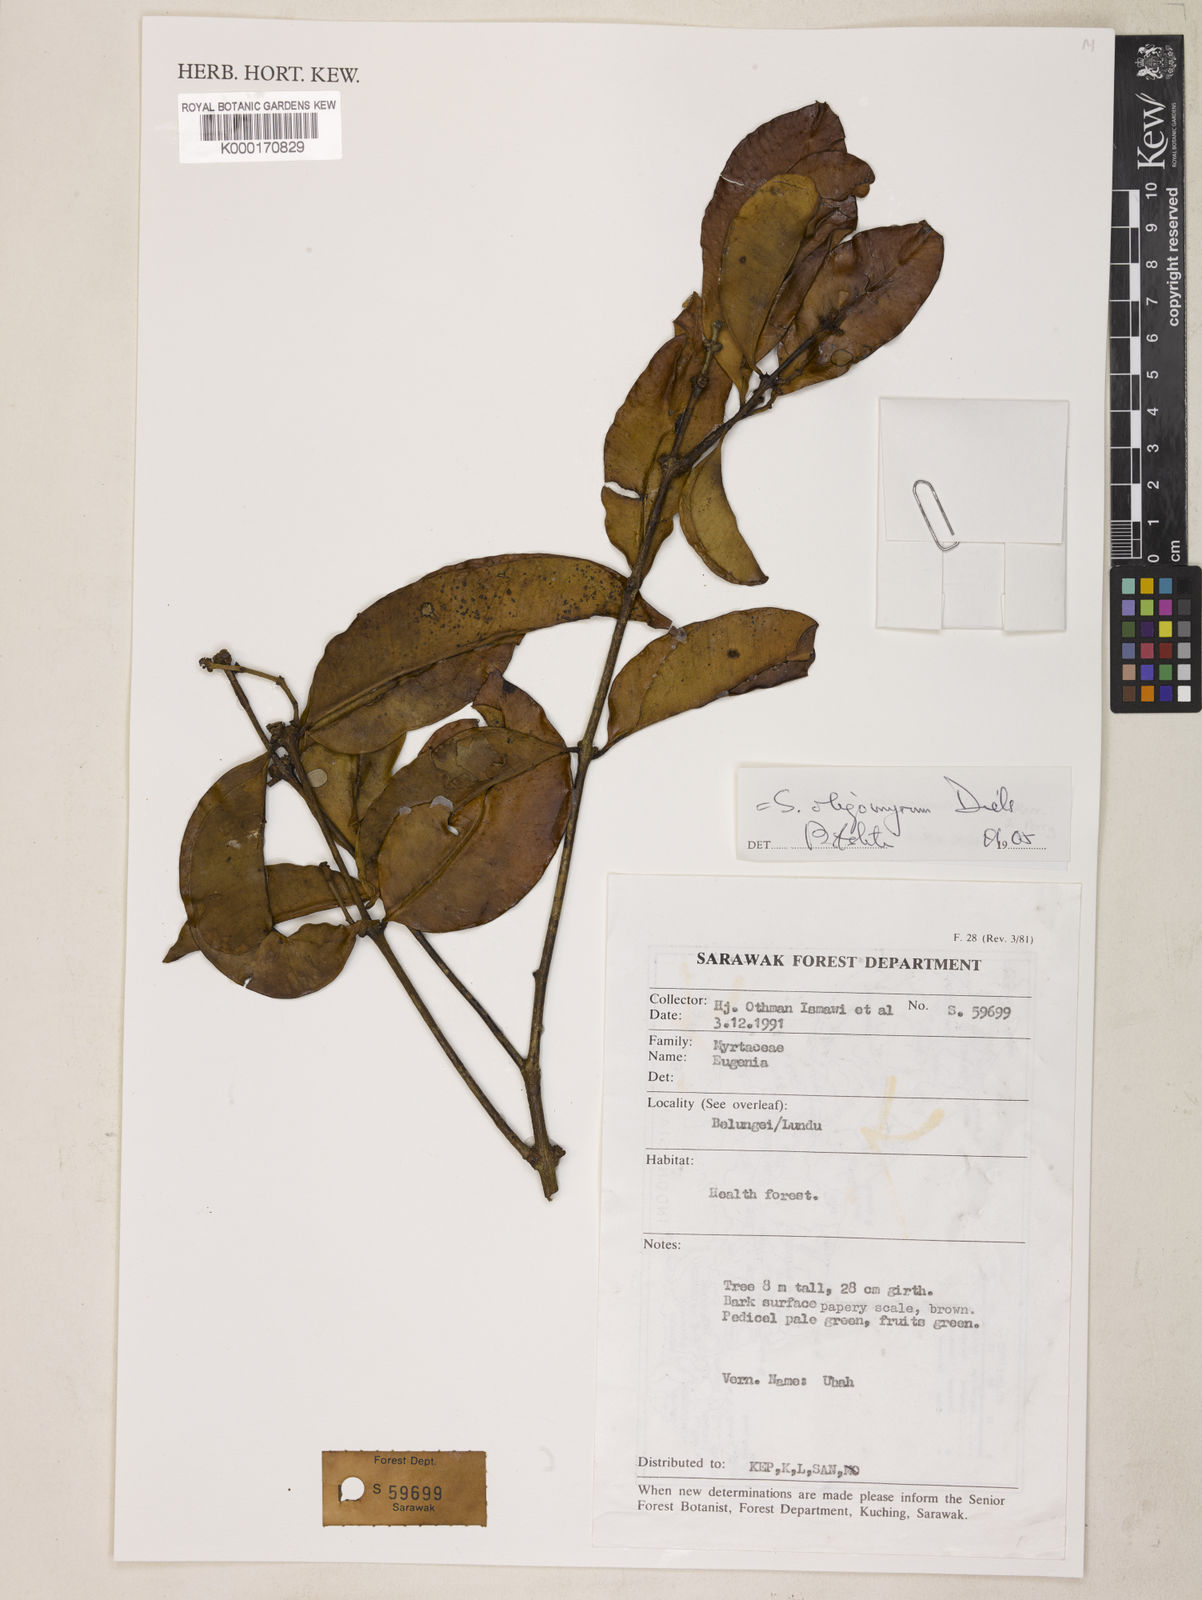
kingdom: Plantae
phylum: Tracheophyta
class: Magnoliopsida
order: Myrtales
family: Myrtaceae
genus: Syzygium
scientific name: Syzygium oligomyrum
